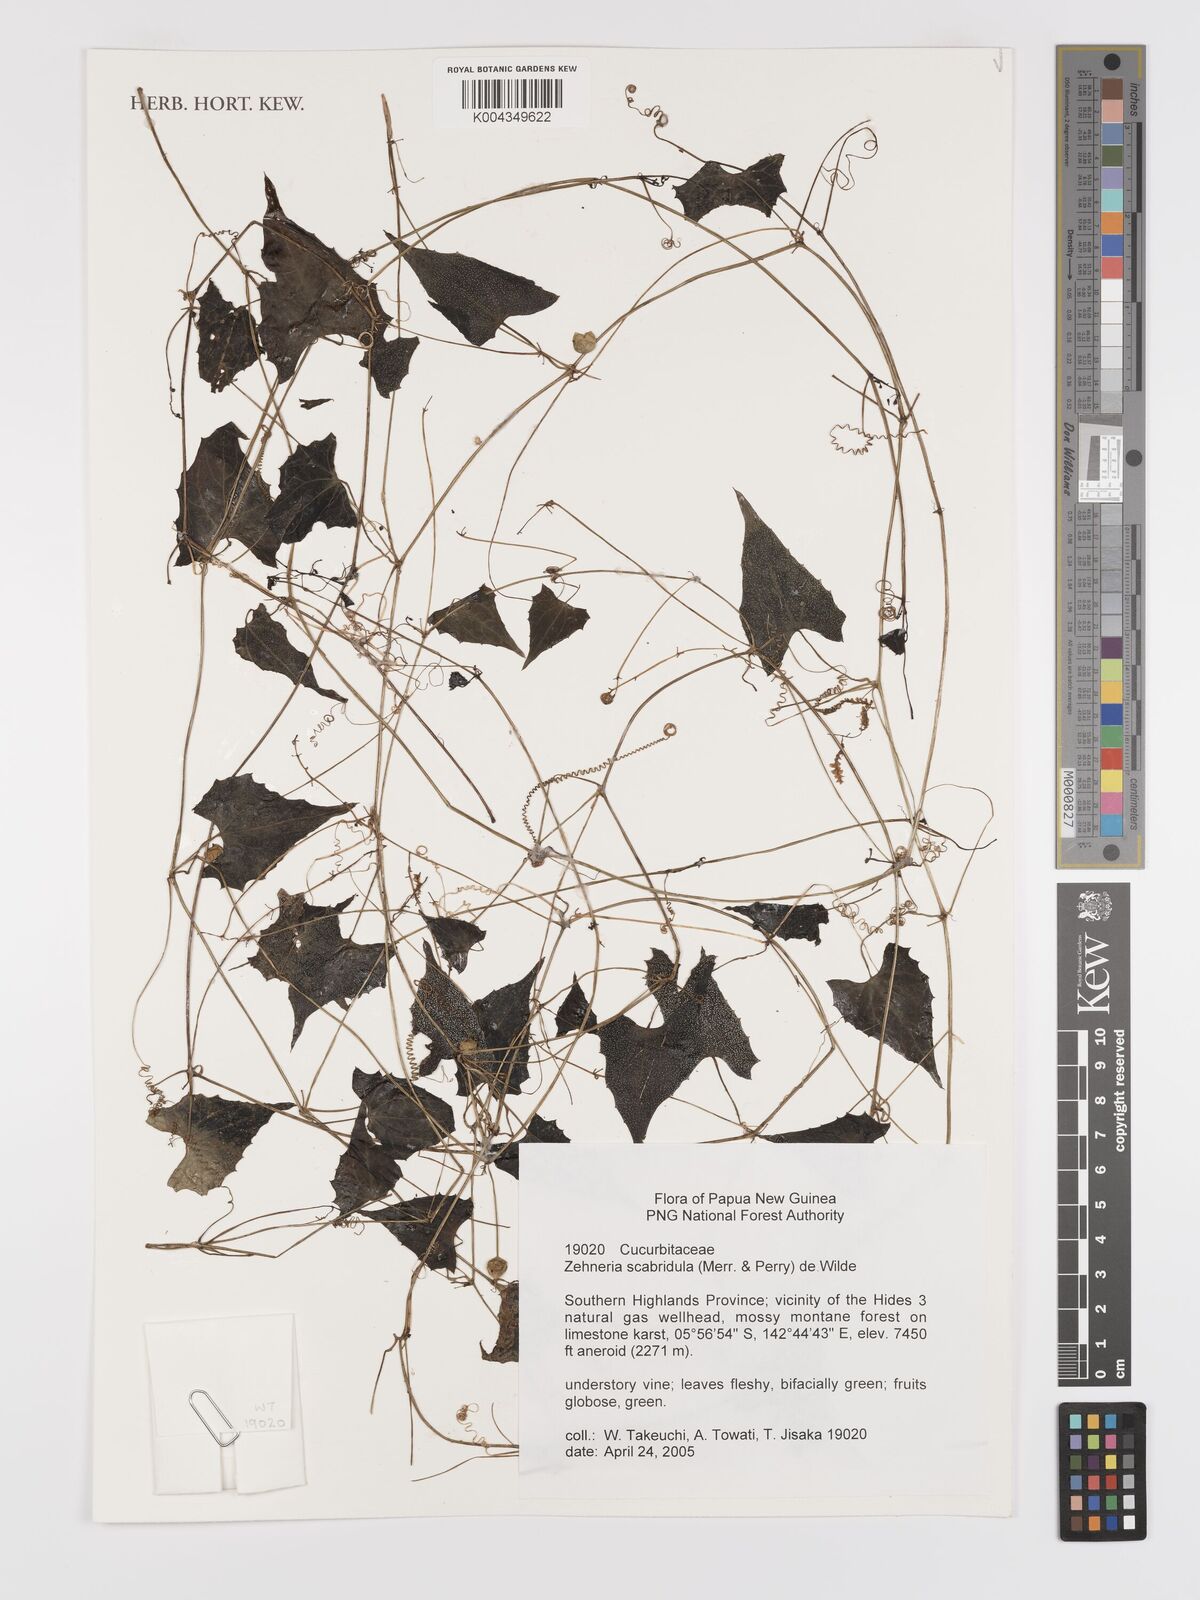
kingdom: Plantae
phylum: Tracheophyta
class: Magnoliopsida
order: Cucurbitales
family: Cucurbitaceae
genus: Zehneria
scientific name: Zehneria
